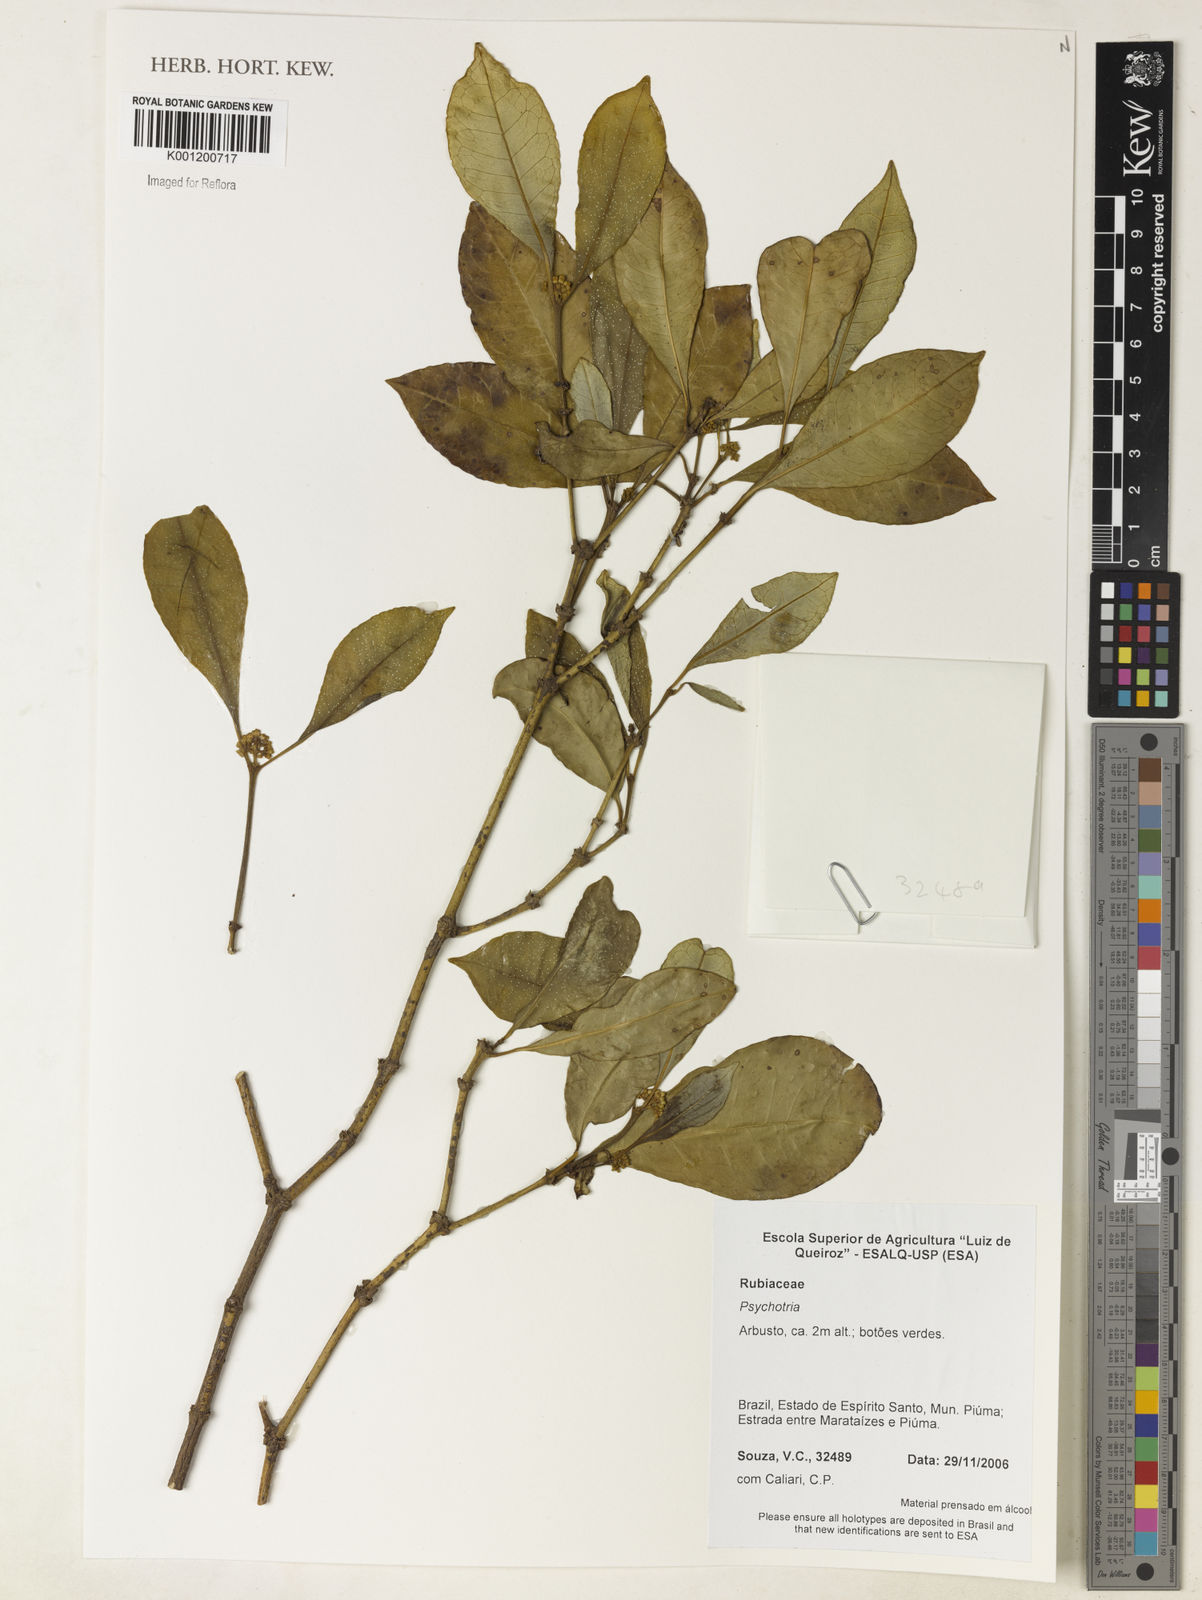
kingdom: Plantae
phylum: Tracheophyta
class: Magnoliopsida
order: Gentianales
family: Rubiaceae
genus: Psychotria
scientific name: Psychotria
